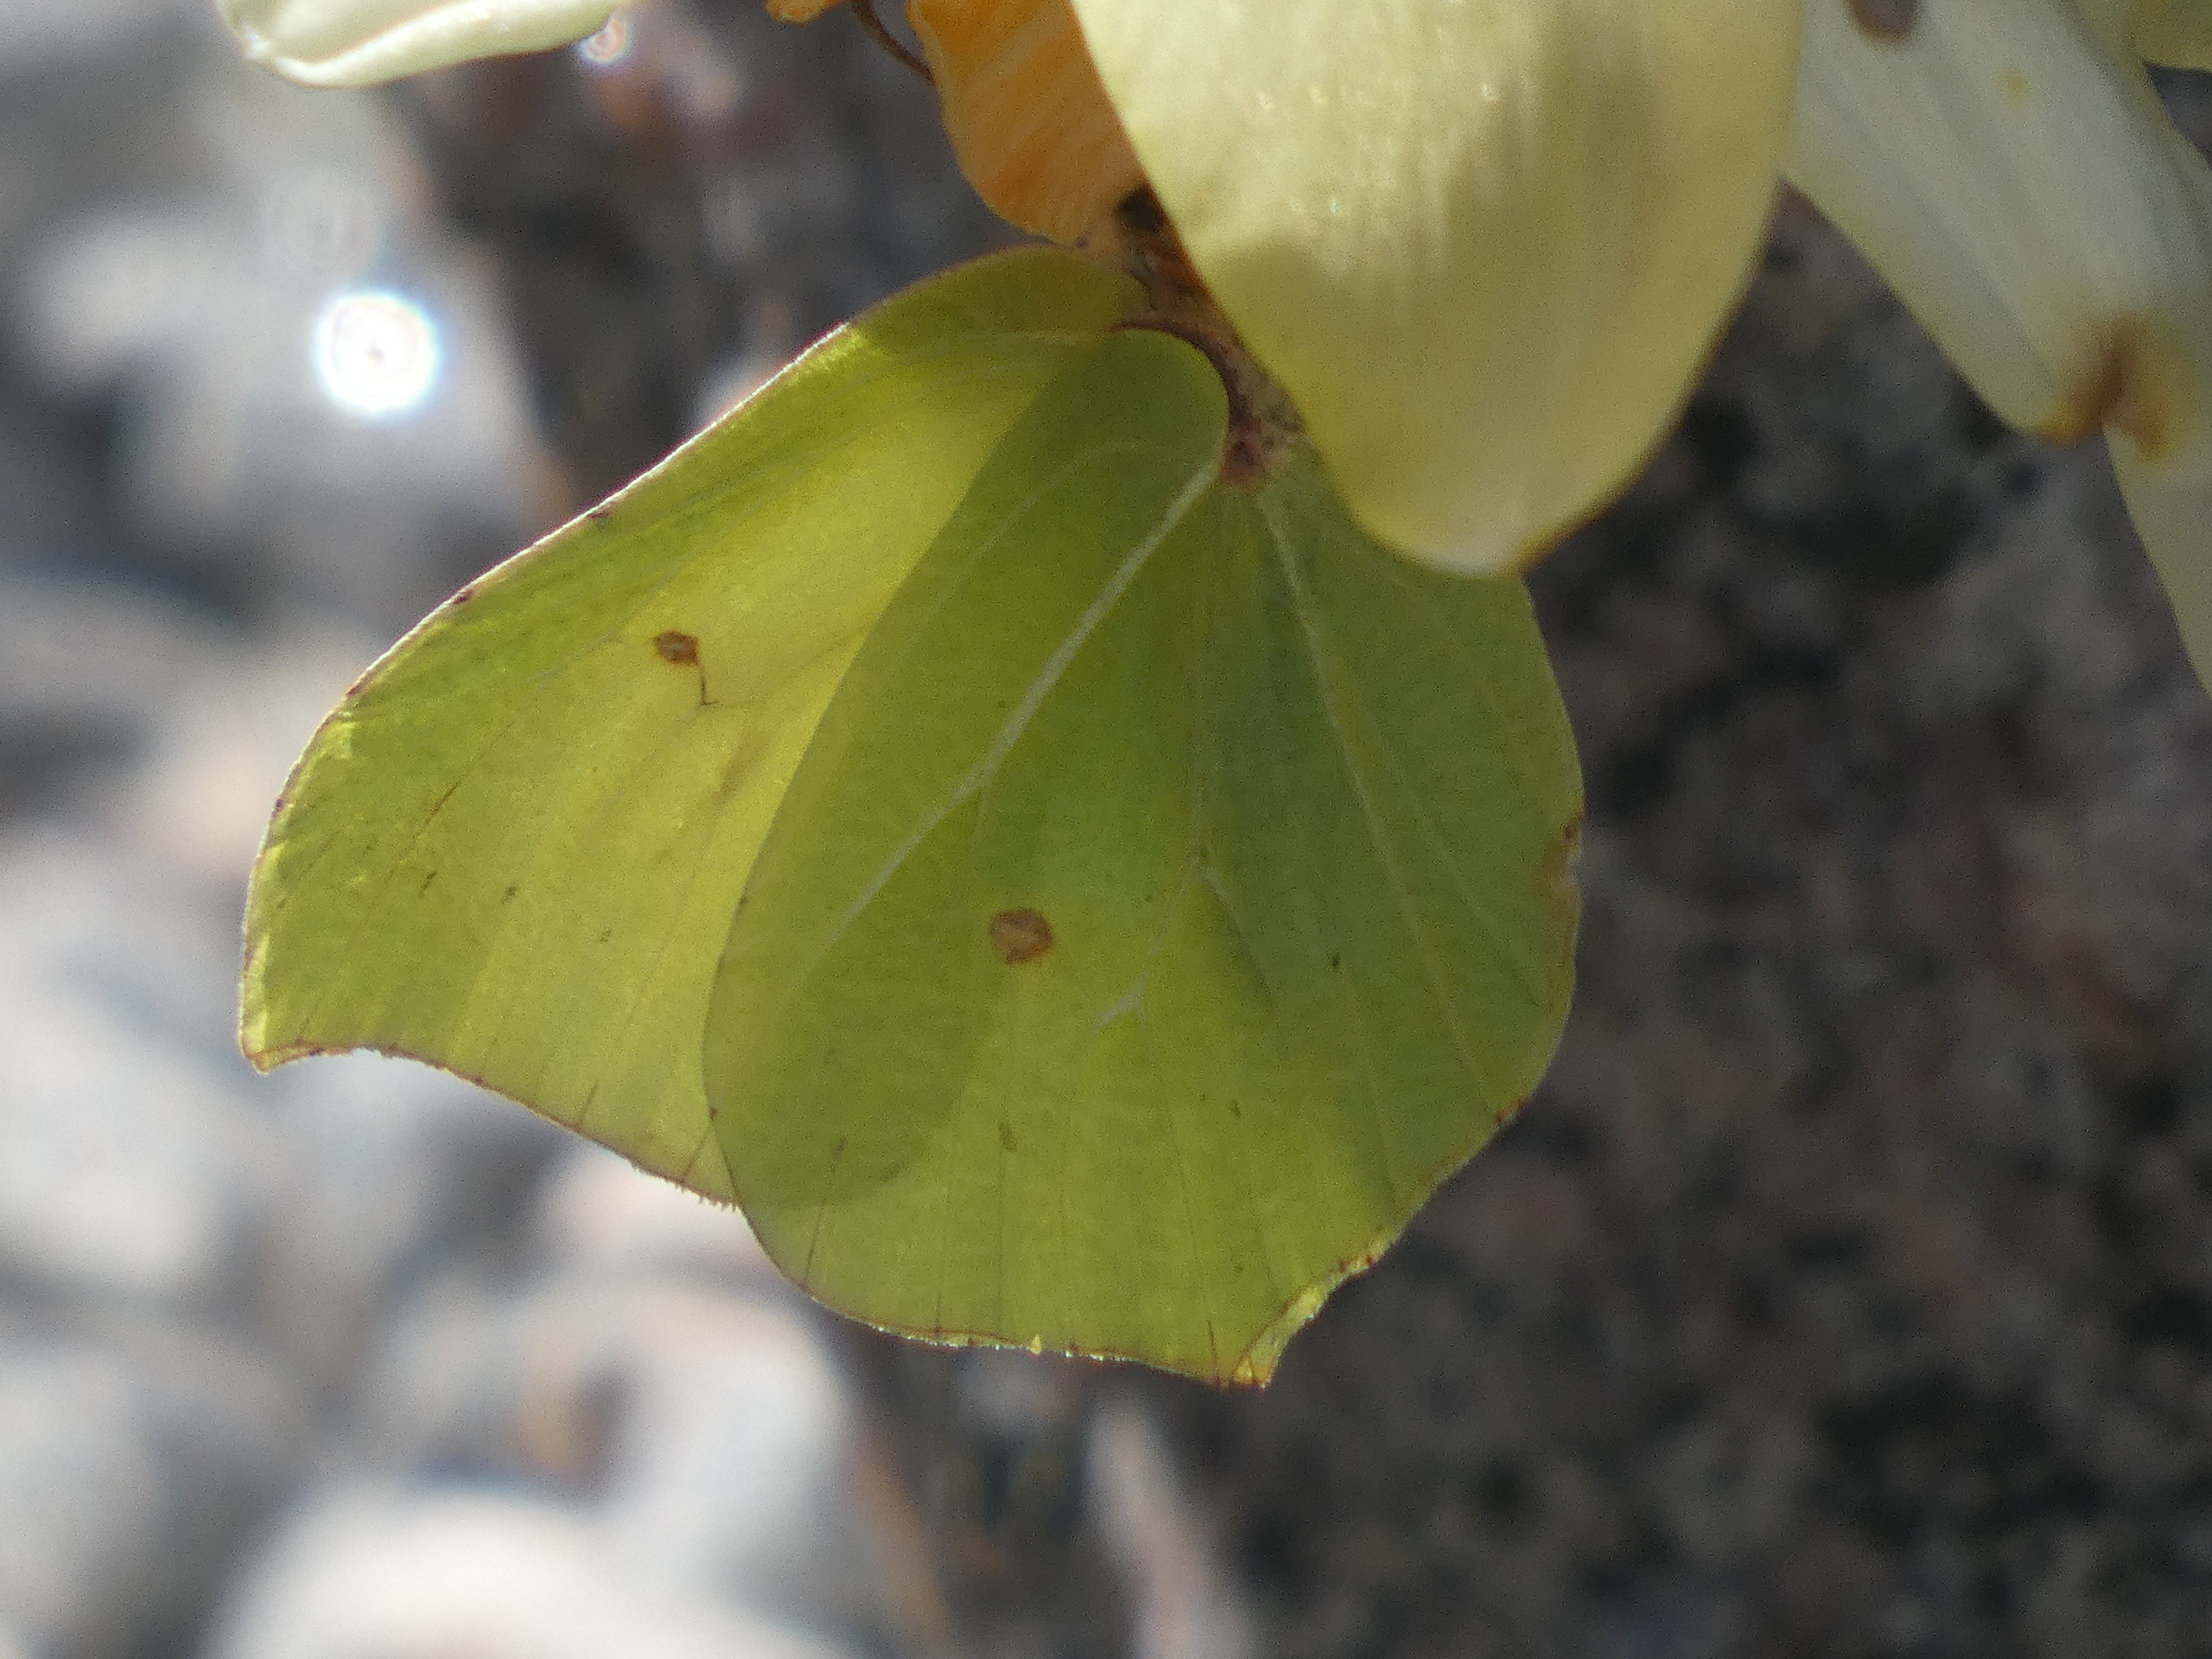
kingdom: Animalia
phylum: Arthropoda
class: Insecta
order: Lepidoptera
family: Pieridae
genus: Gonepteryx
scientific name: Gonepteryx rhamni
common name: Citronsommerfugl
